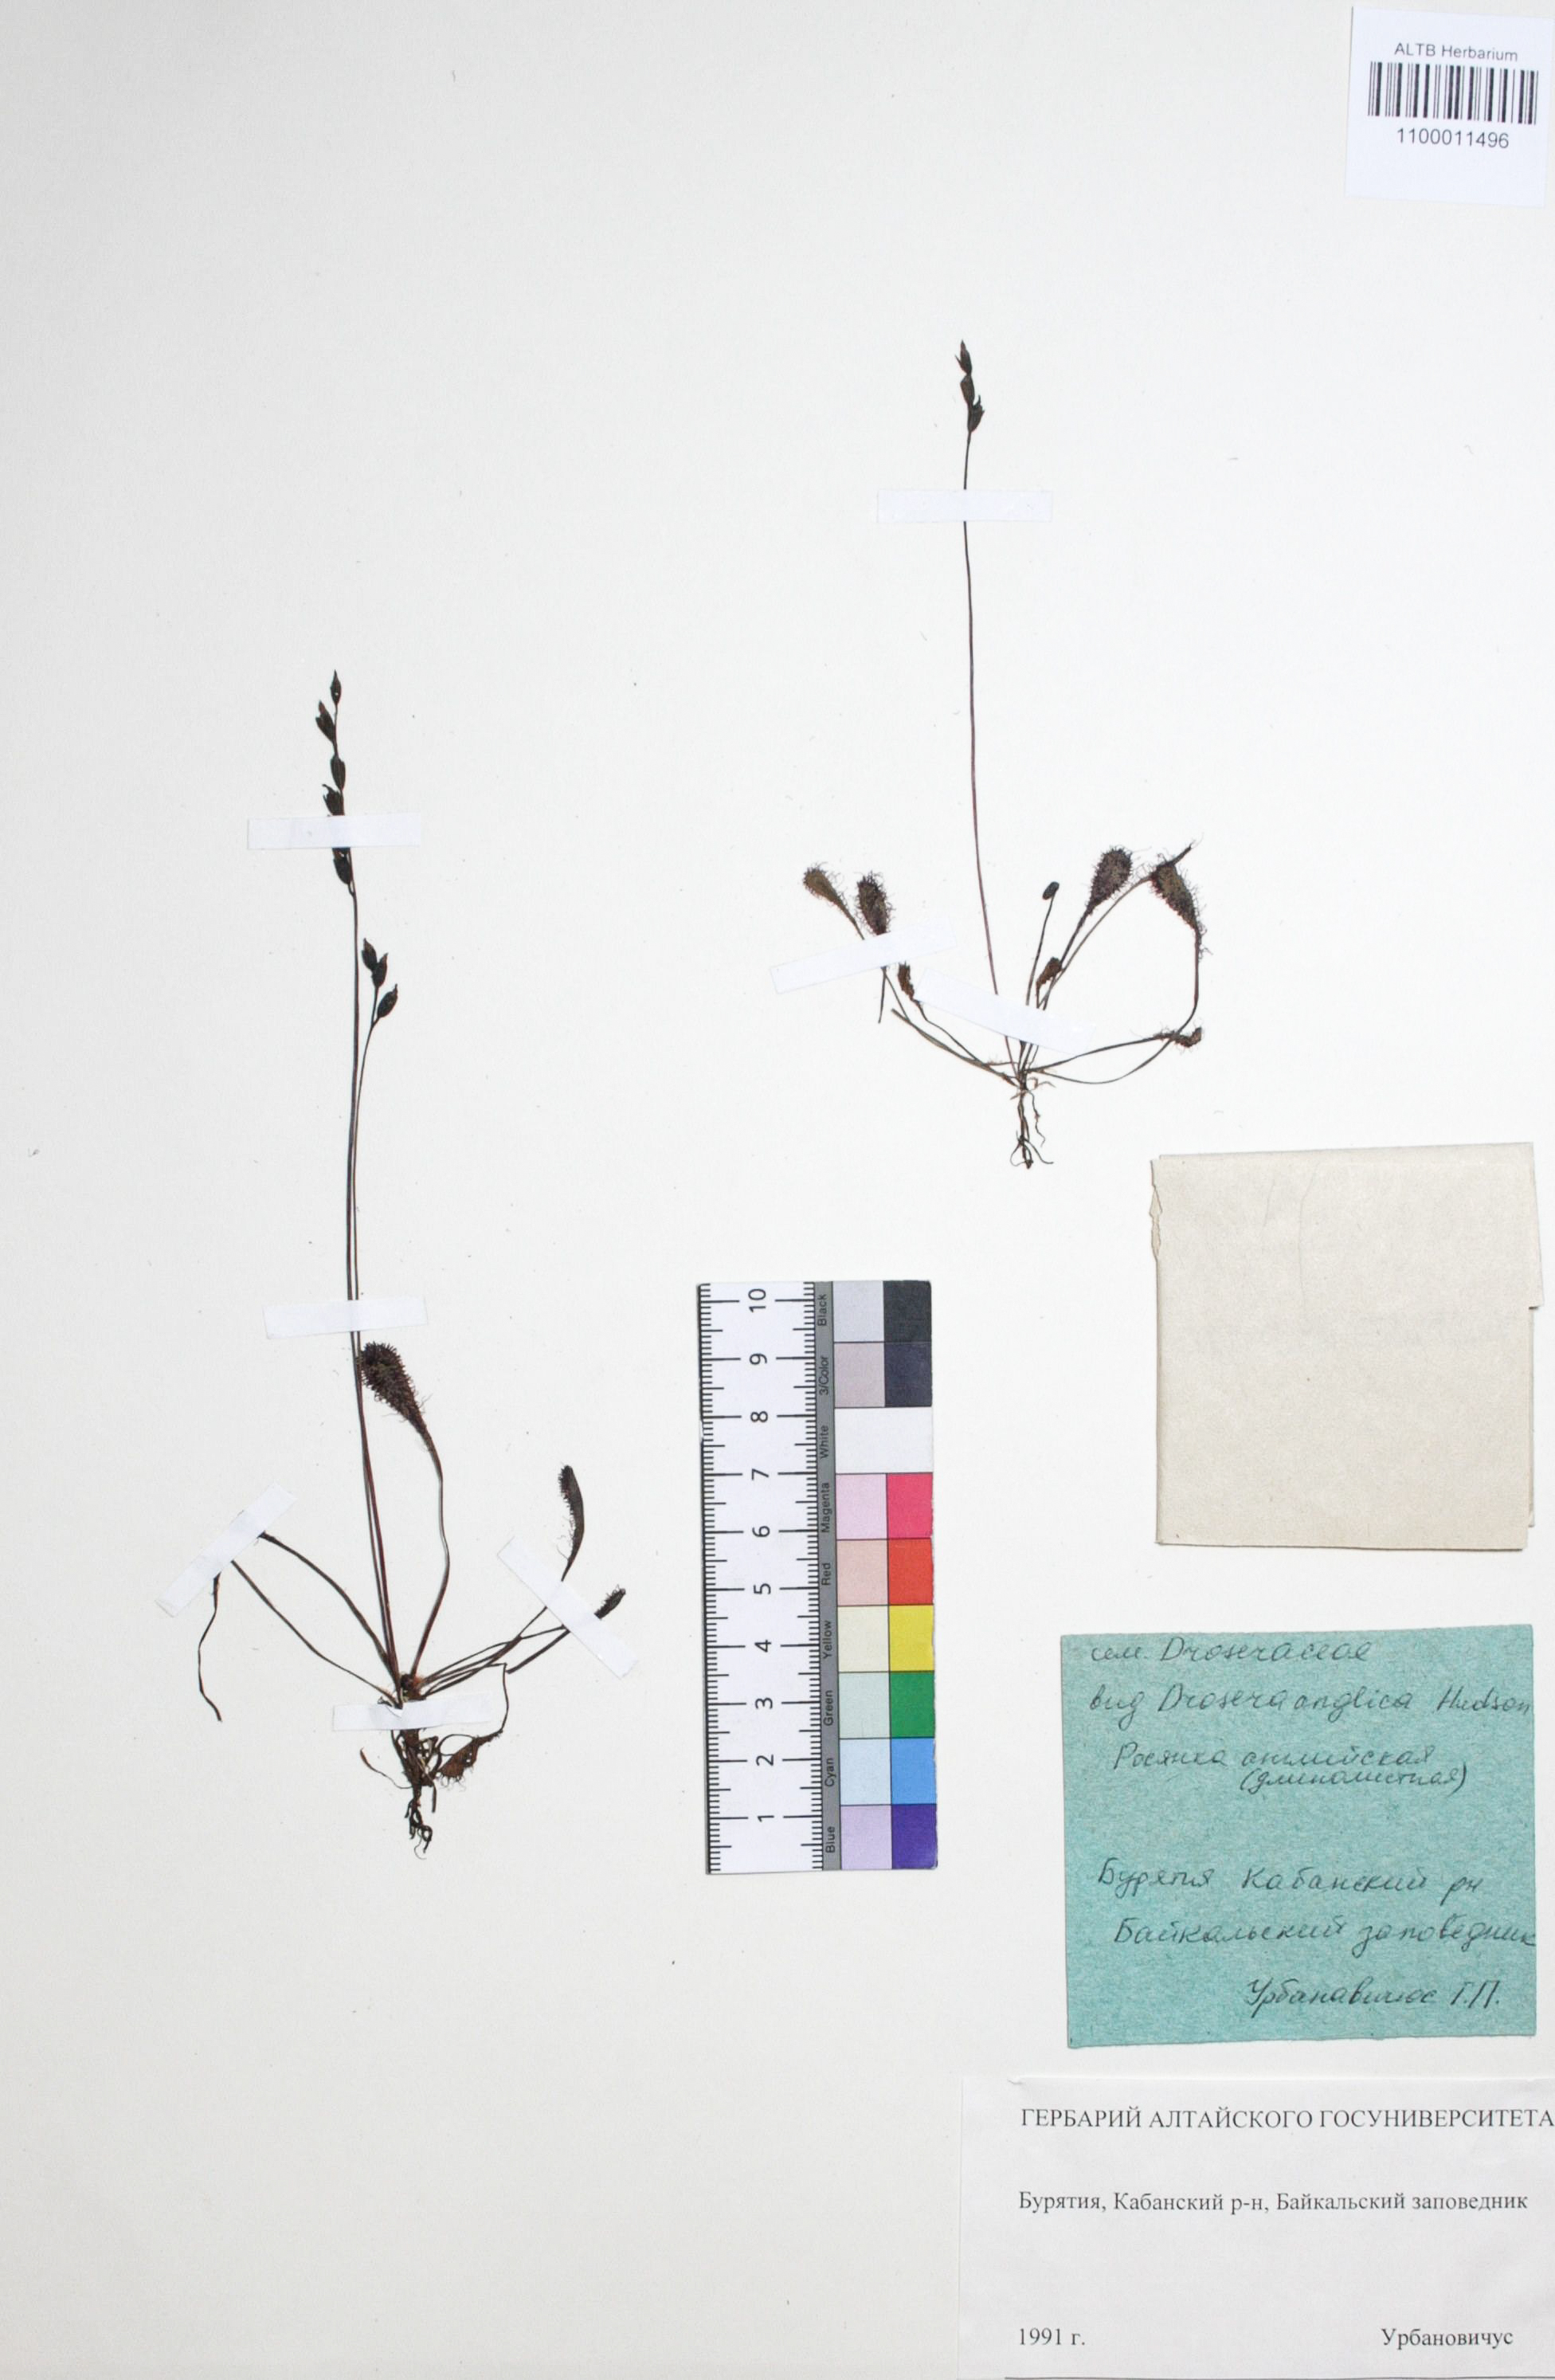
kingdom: Plantae
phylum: Tracheophyta
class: Magnoliopsida
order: Caryophyllales
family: Droseraceae
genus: Drosera
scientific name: Drosera anglica
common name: Great sundew
